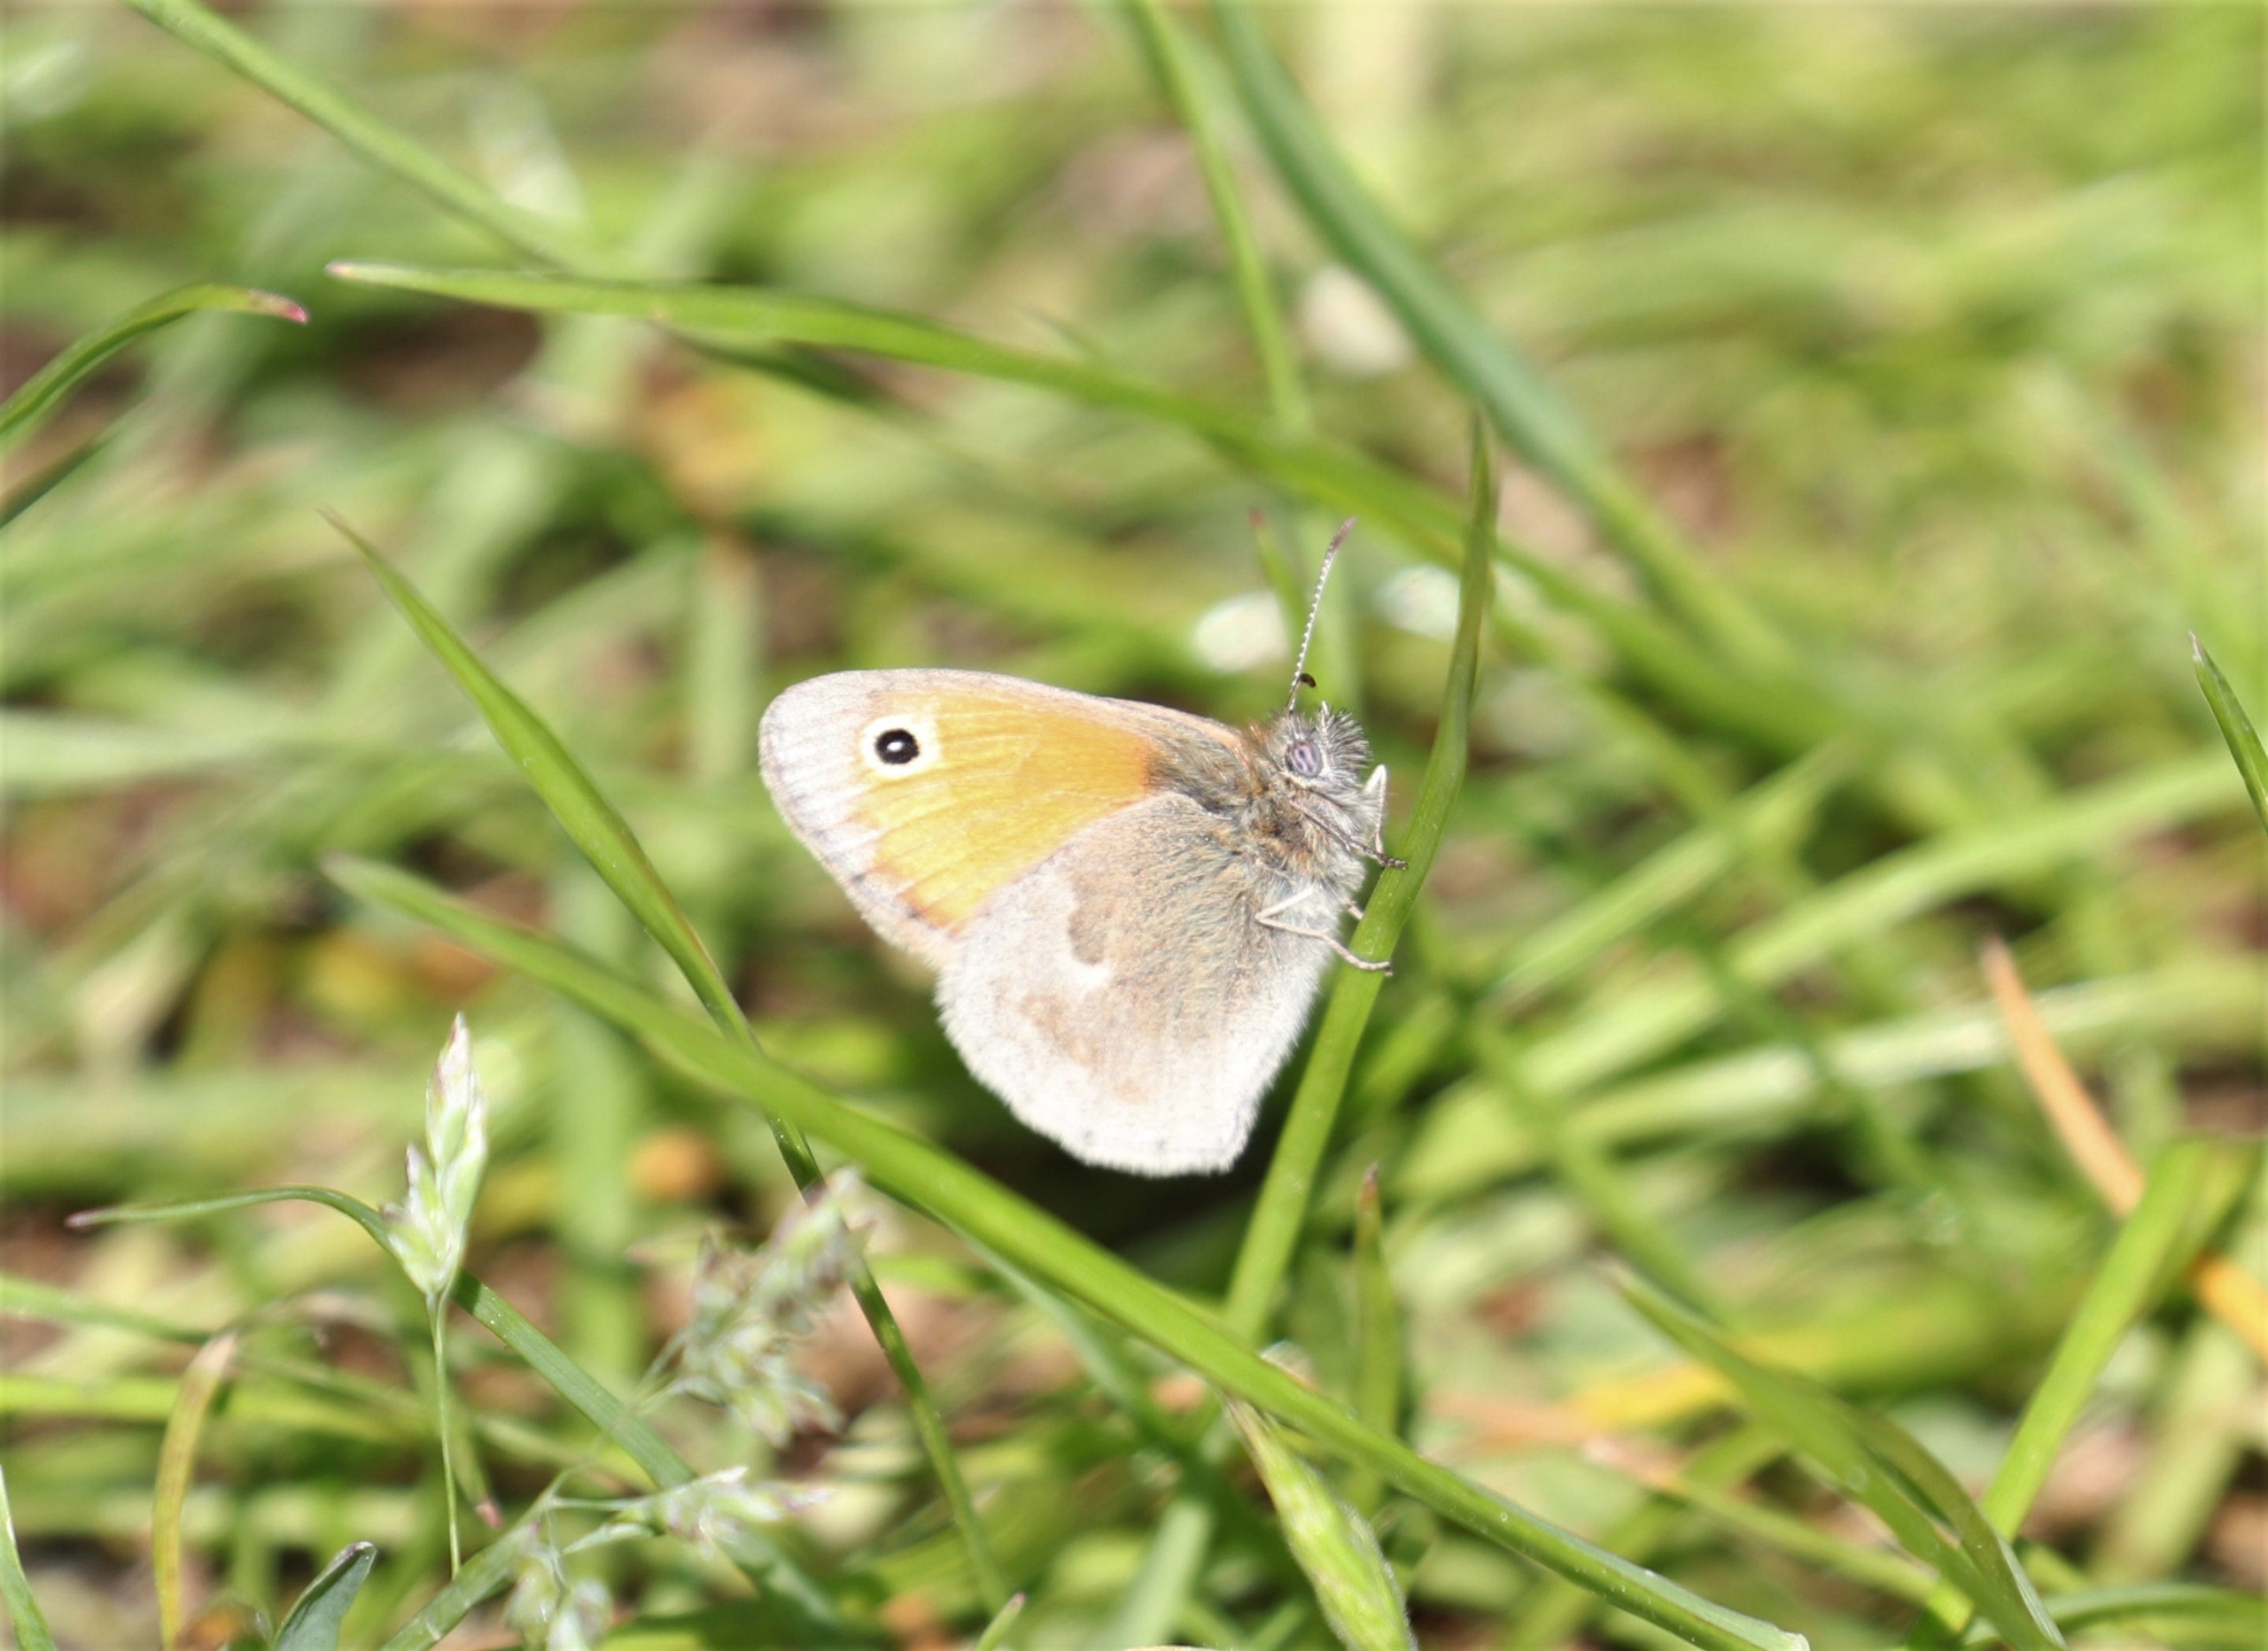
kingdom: Animalia
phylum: Arthropoda
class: Insecta
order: Lepidoptera
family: Nymphalidae
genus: Coenonympha
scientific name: Coenonympha pamphilus
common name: Okkergul randøje
